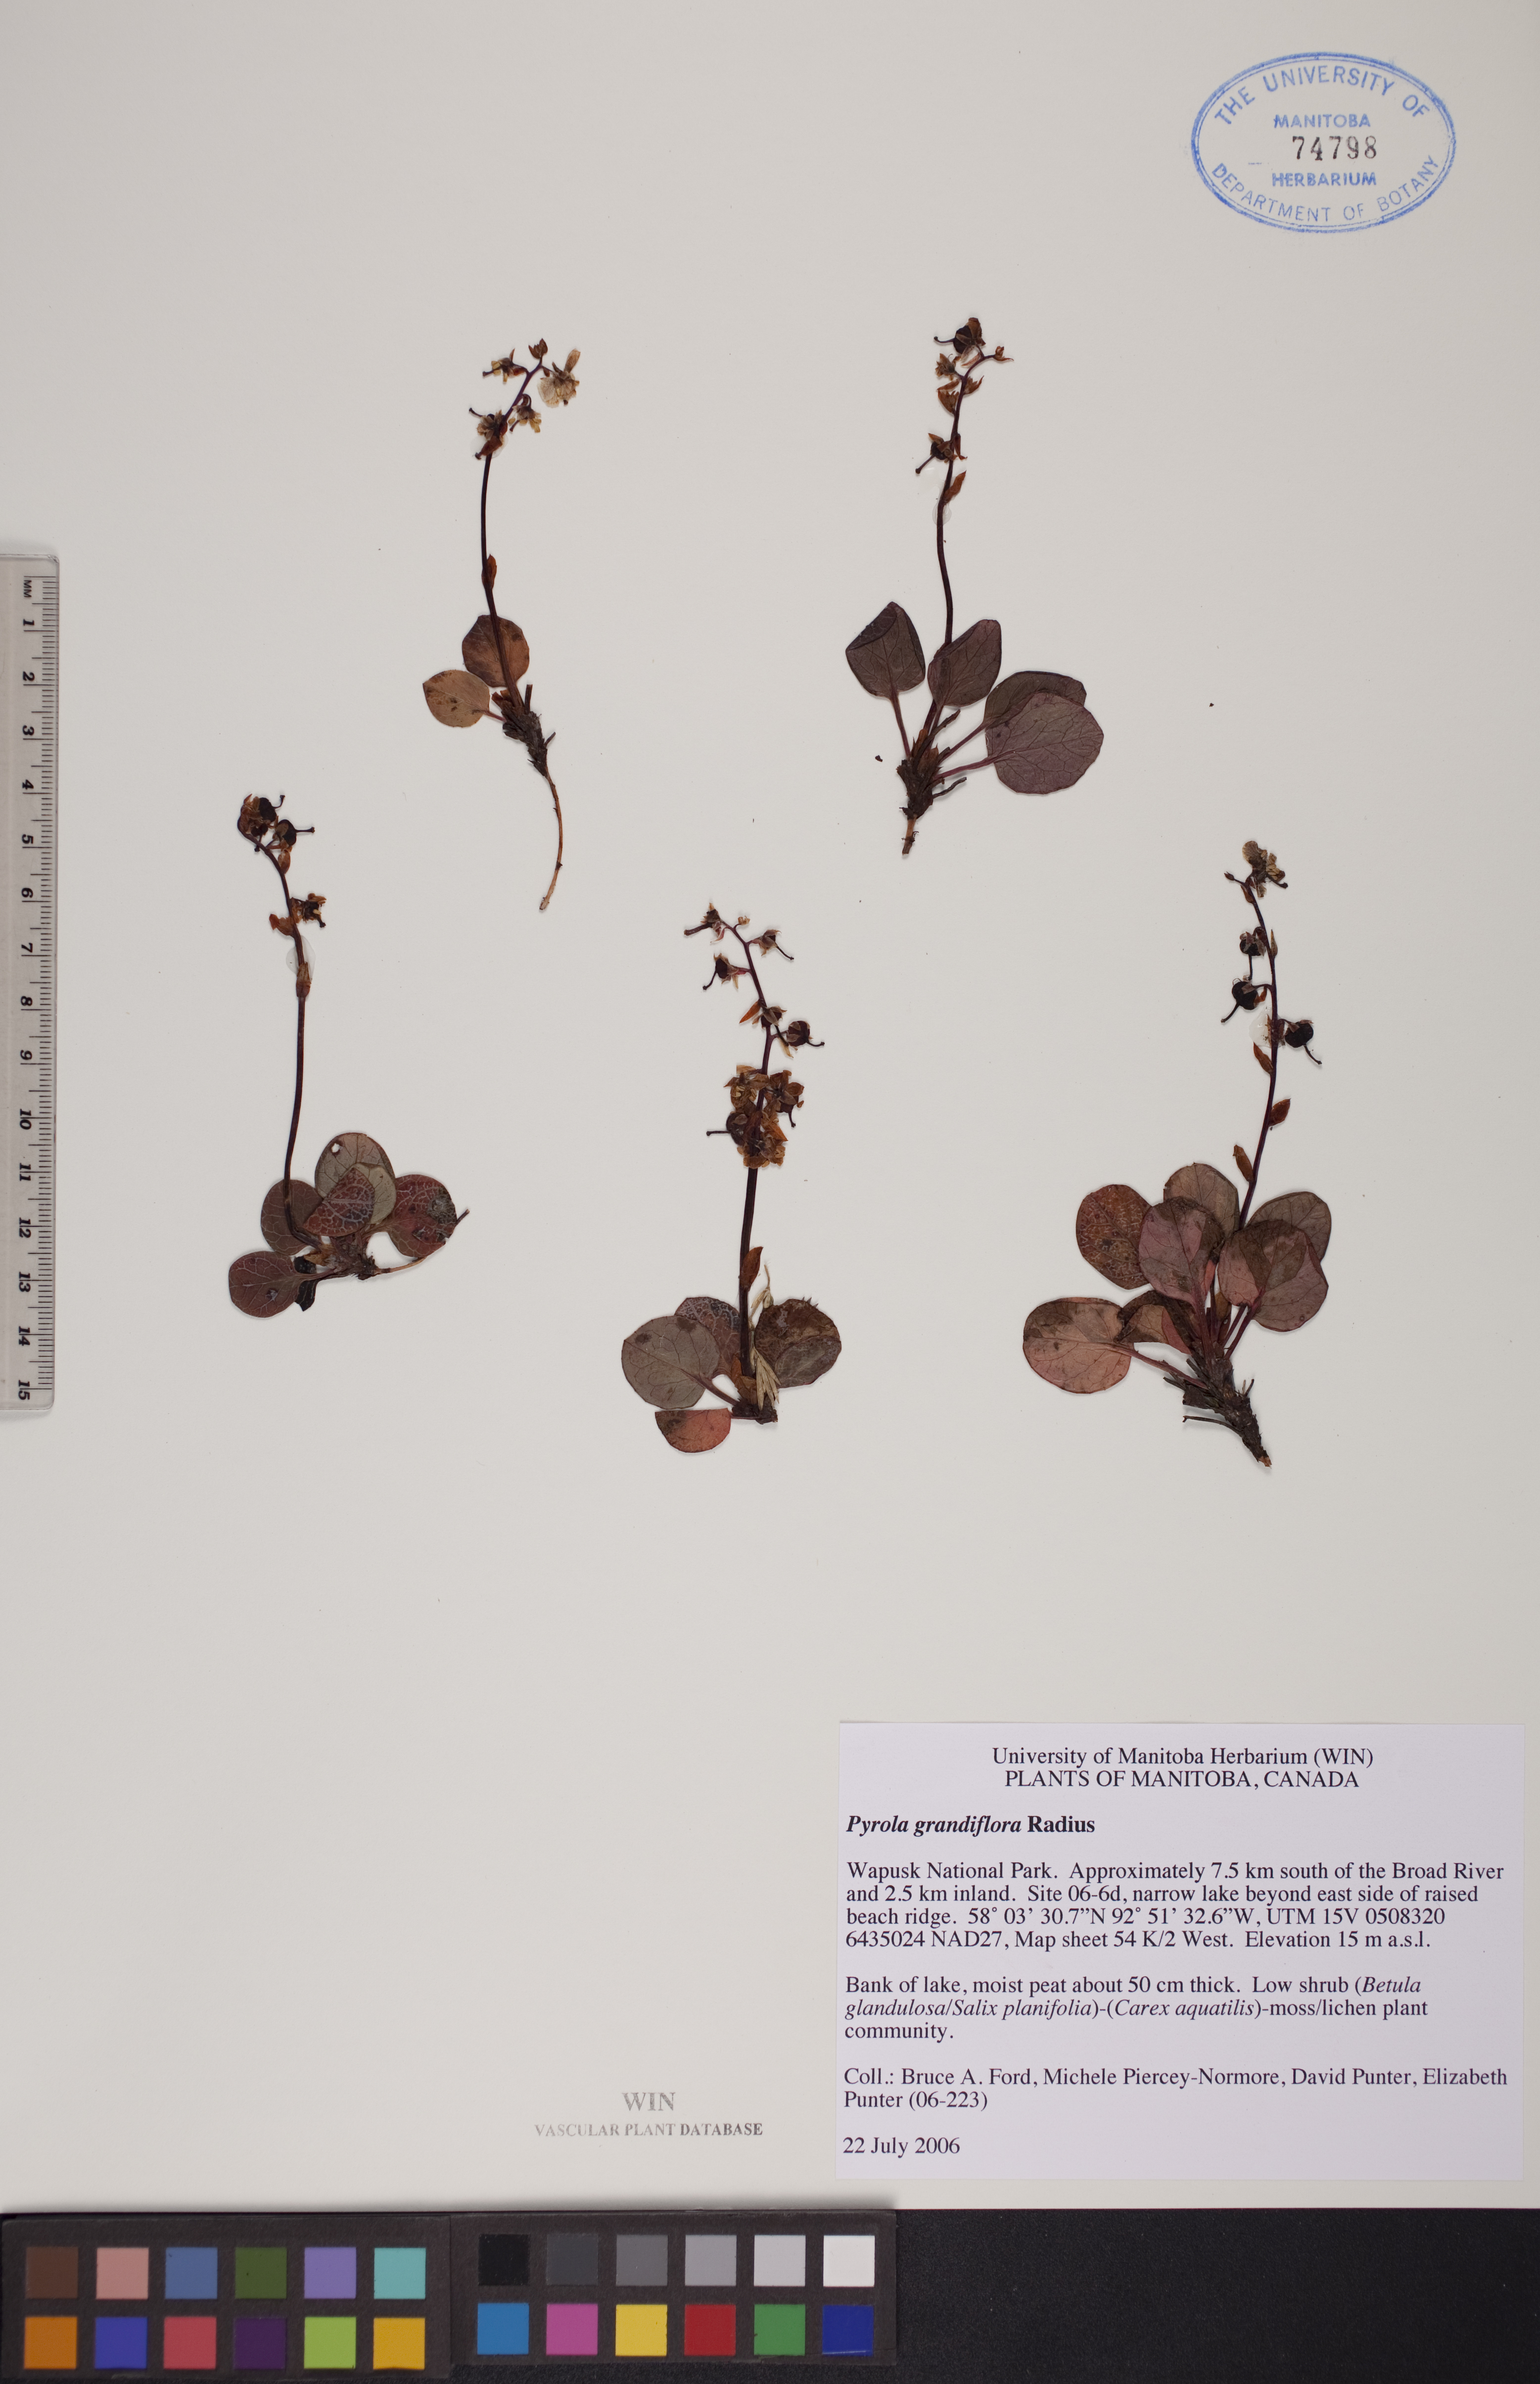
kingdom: Plantae
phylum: Tracheophyta
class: Magnoliopsida
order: Ericales
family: Ericaceae
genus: Pyrola
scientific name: Pyrola grandiflora
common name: Arctic pyrola
